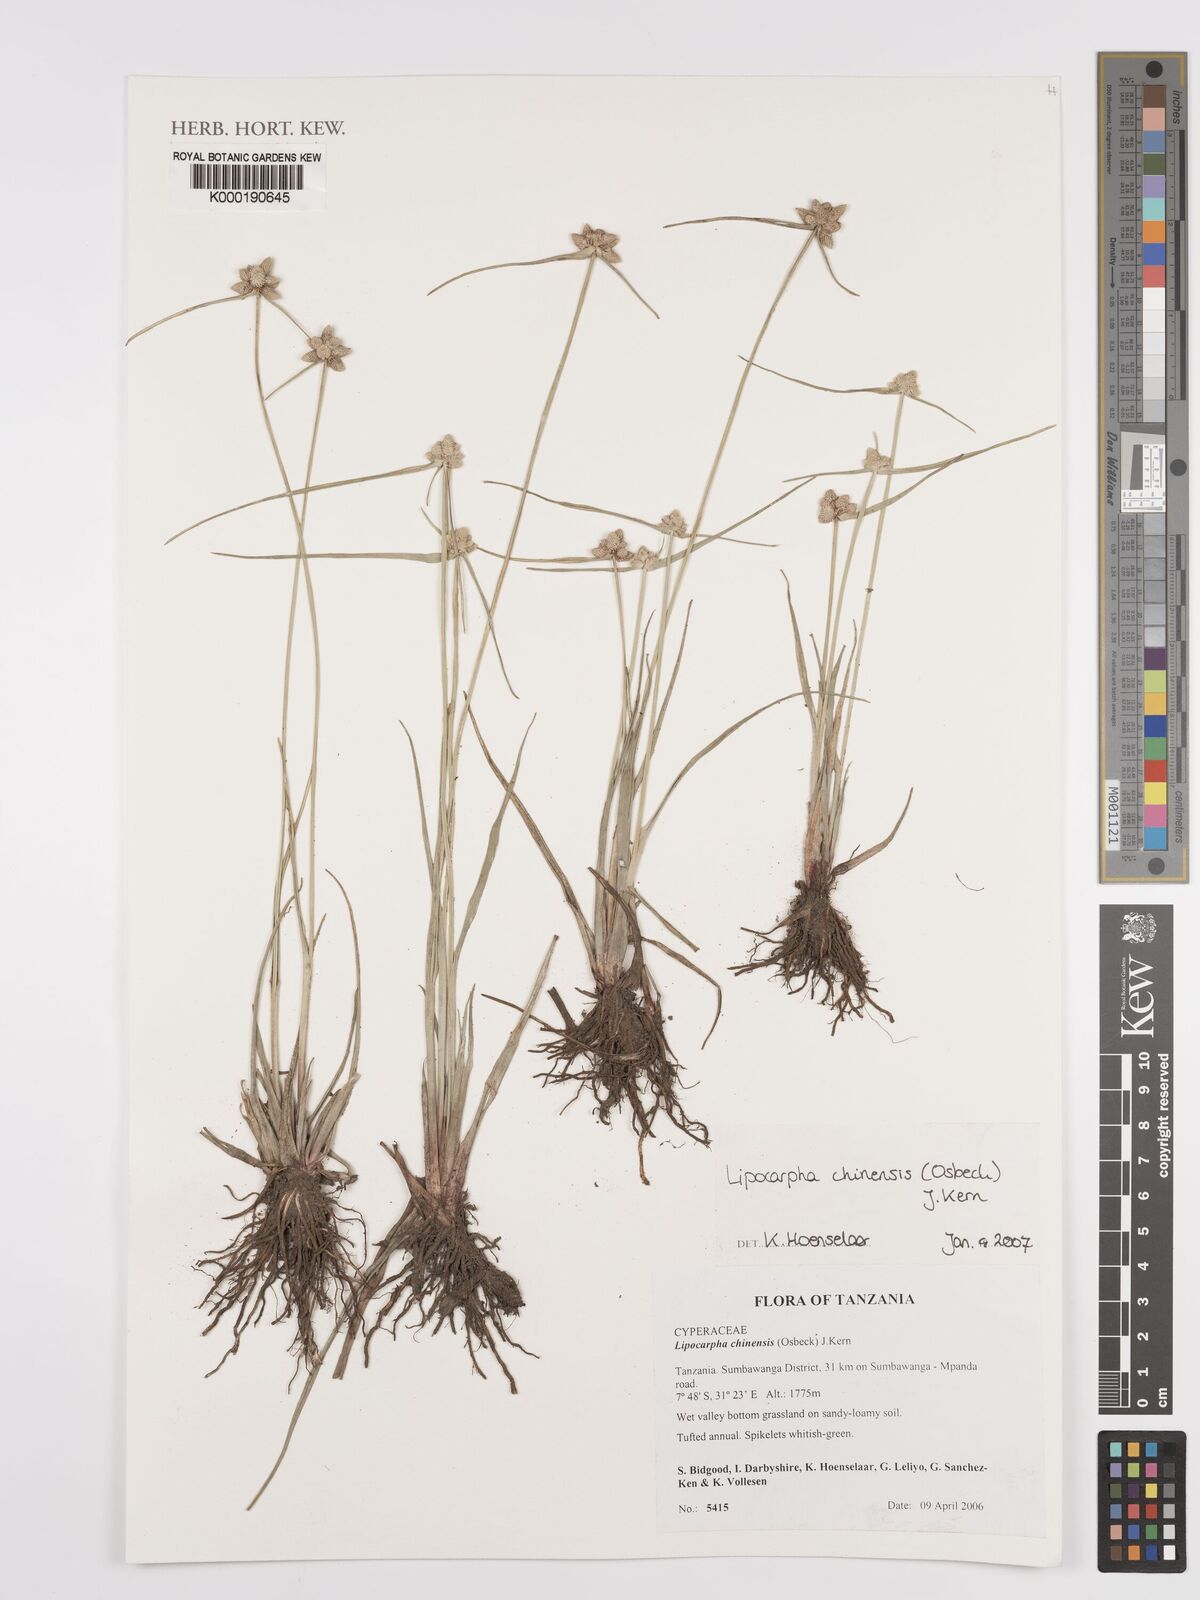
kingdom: Plantae
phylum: Tracheophyta
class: Liliopsida
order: Poales
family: Cyperaceae
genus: Cyperus
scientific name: Cyperus albescens
